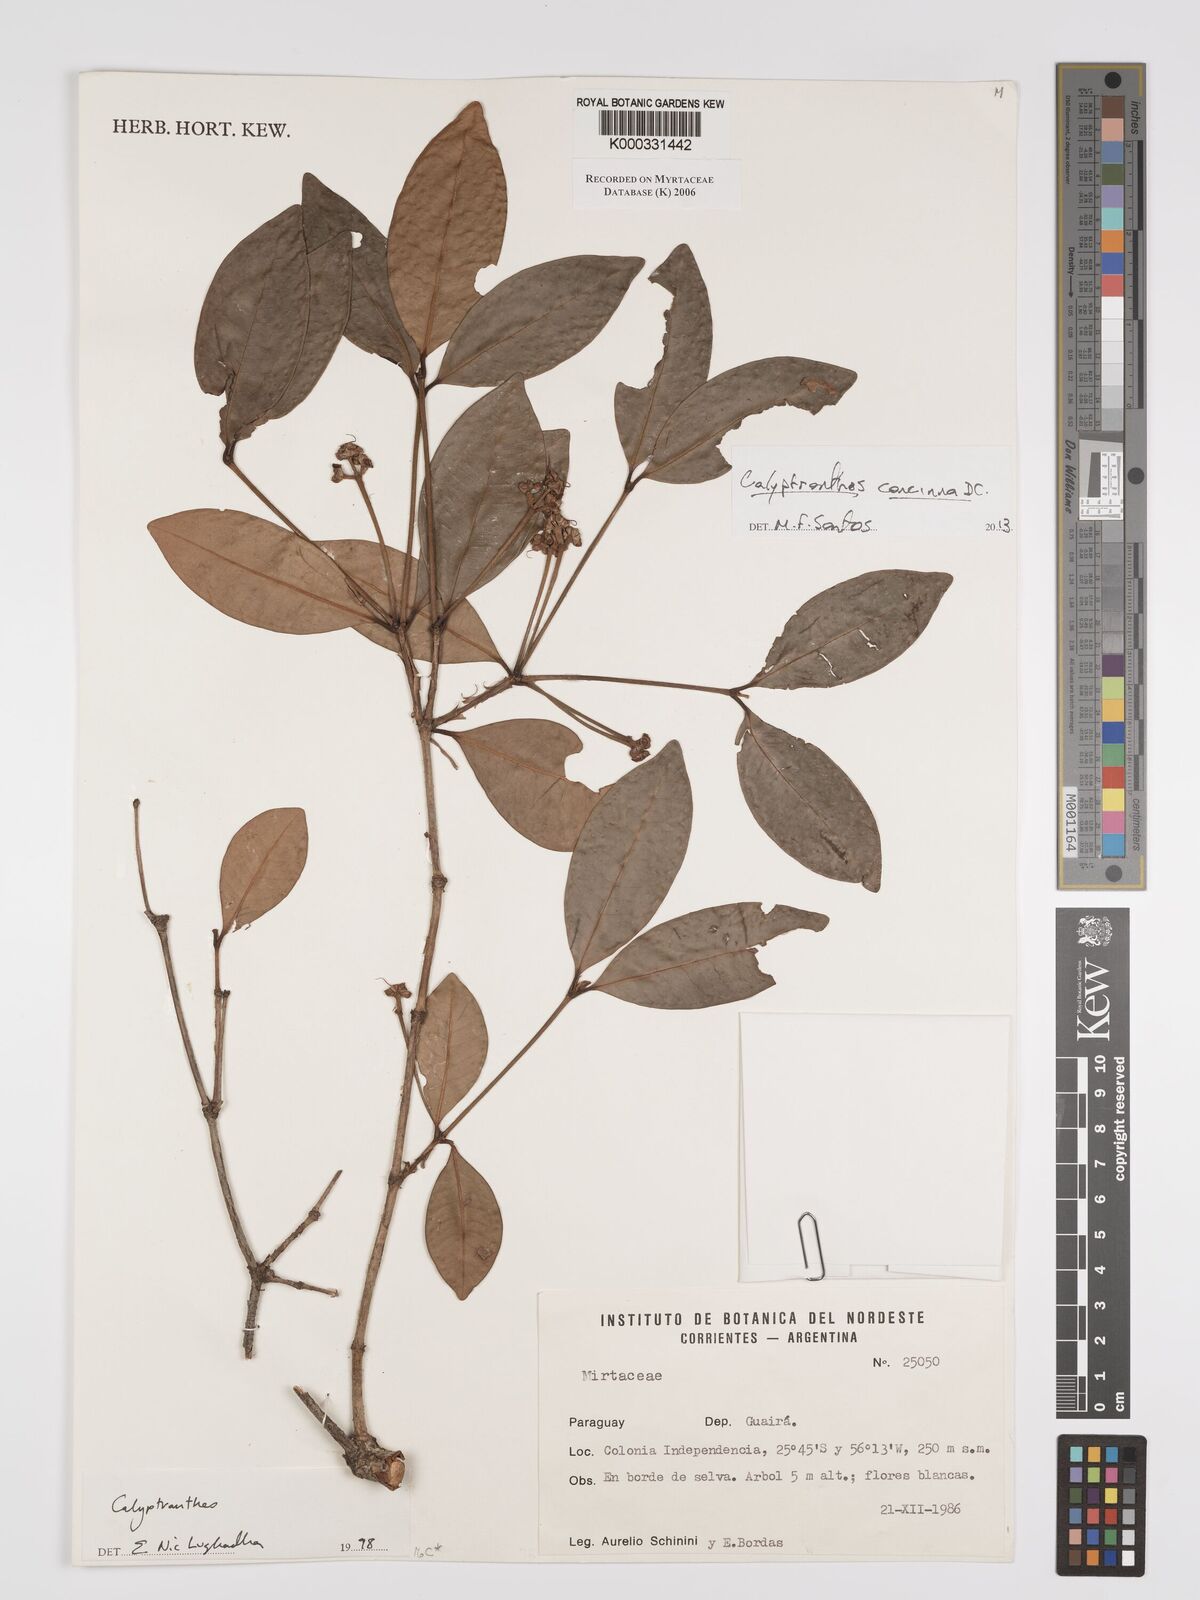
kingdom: Plantae
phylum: Tracheophyta
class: Magnoliopsida
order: Myrtales
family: Myrtaceae
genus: Calyptranthes
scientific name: Calyptranthes
